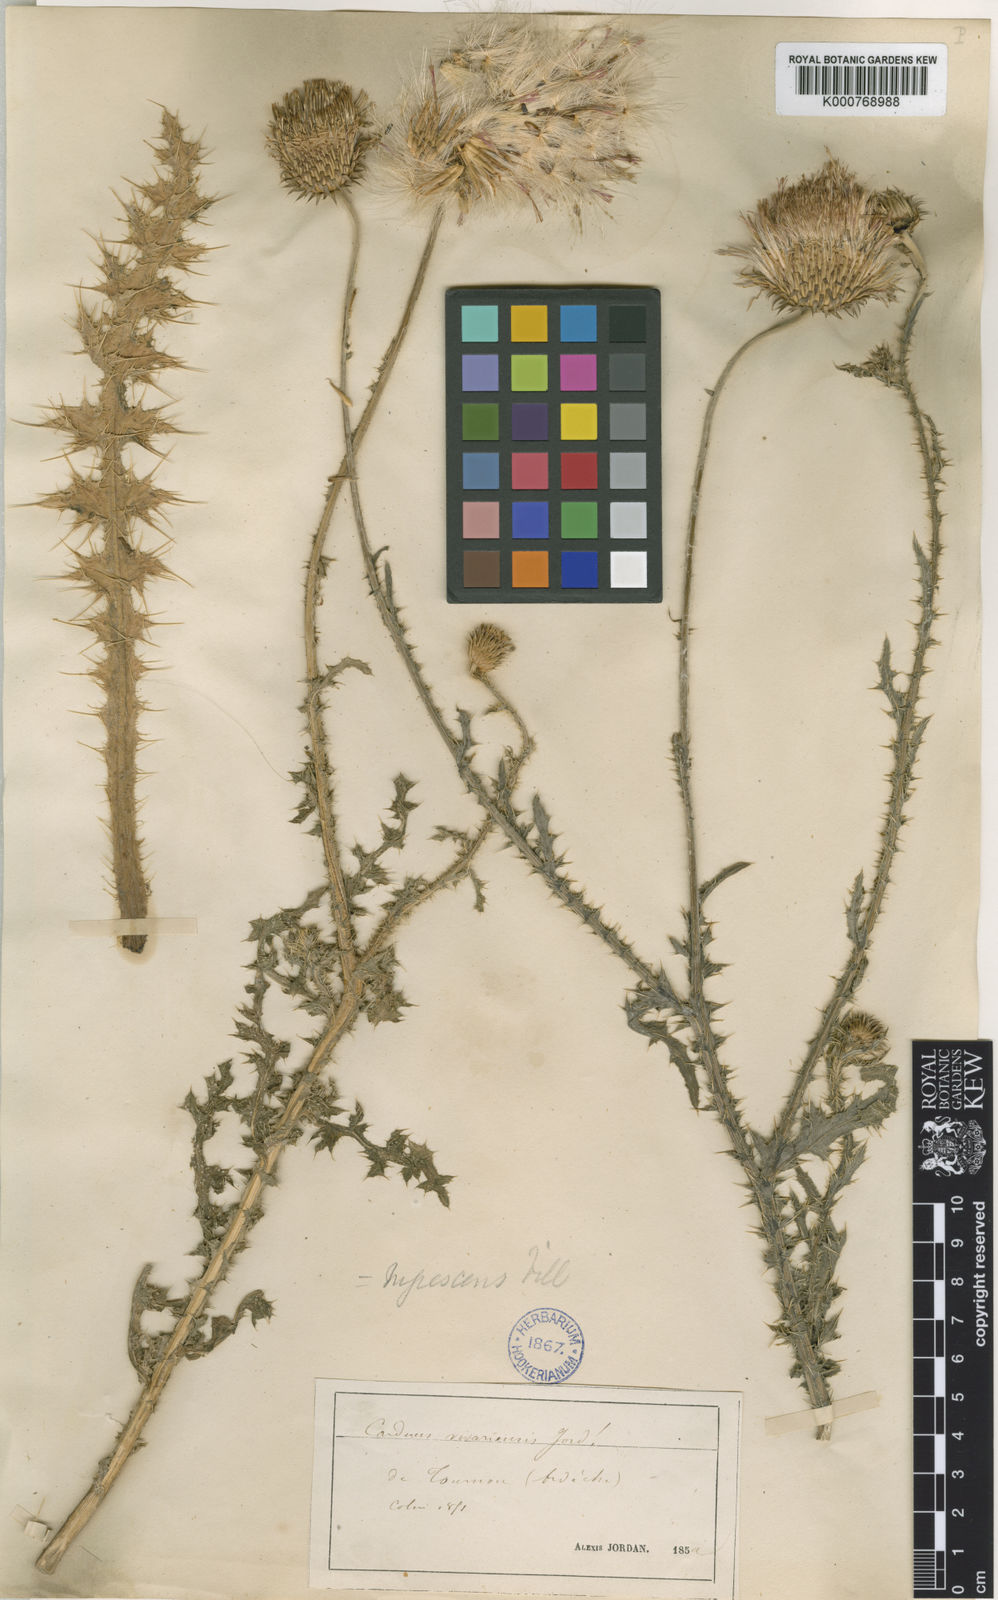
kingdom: Plantae
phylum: Tracheophyta
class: Magnoliopsida
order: Asterales
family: Asteraceae
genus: Carduus
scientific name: Carduus vivariensis
